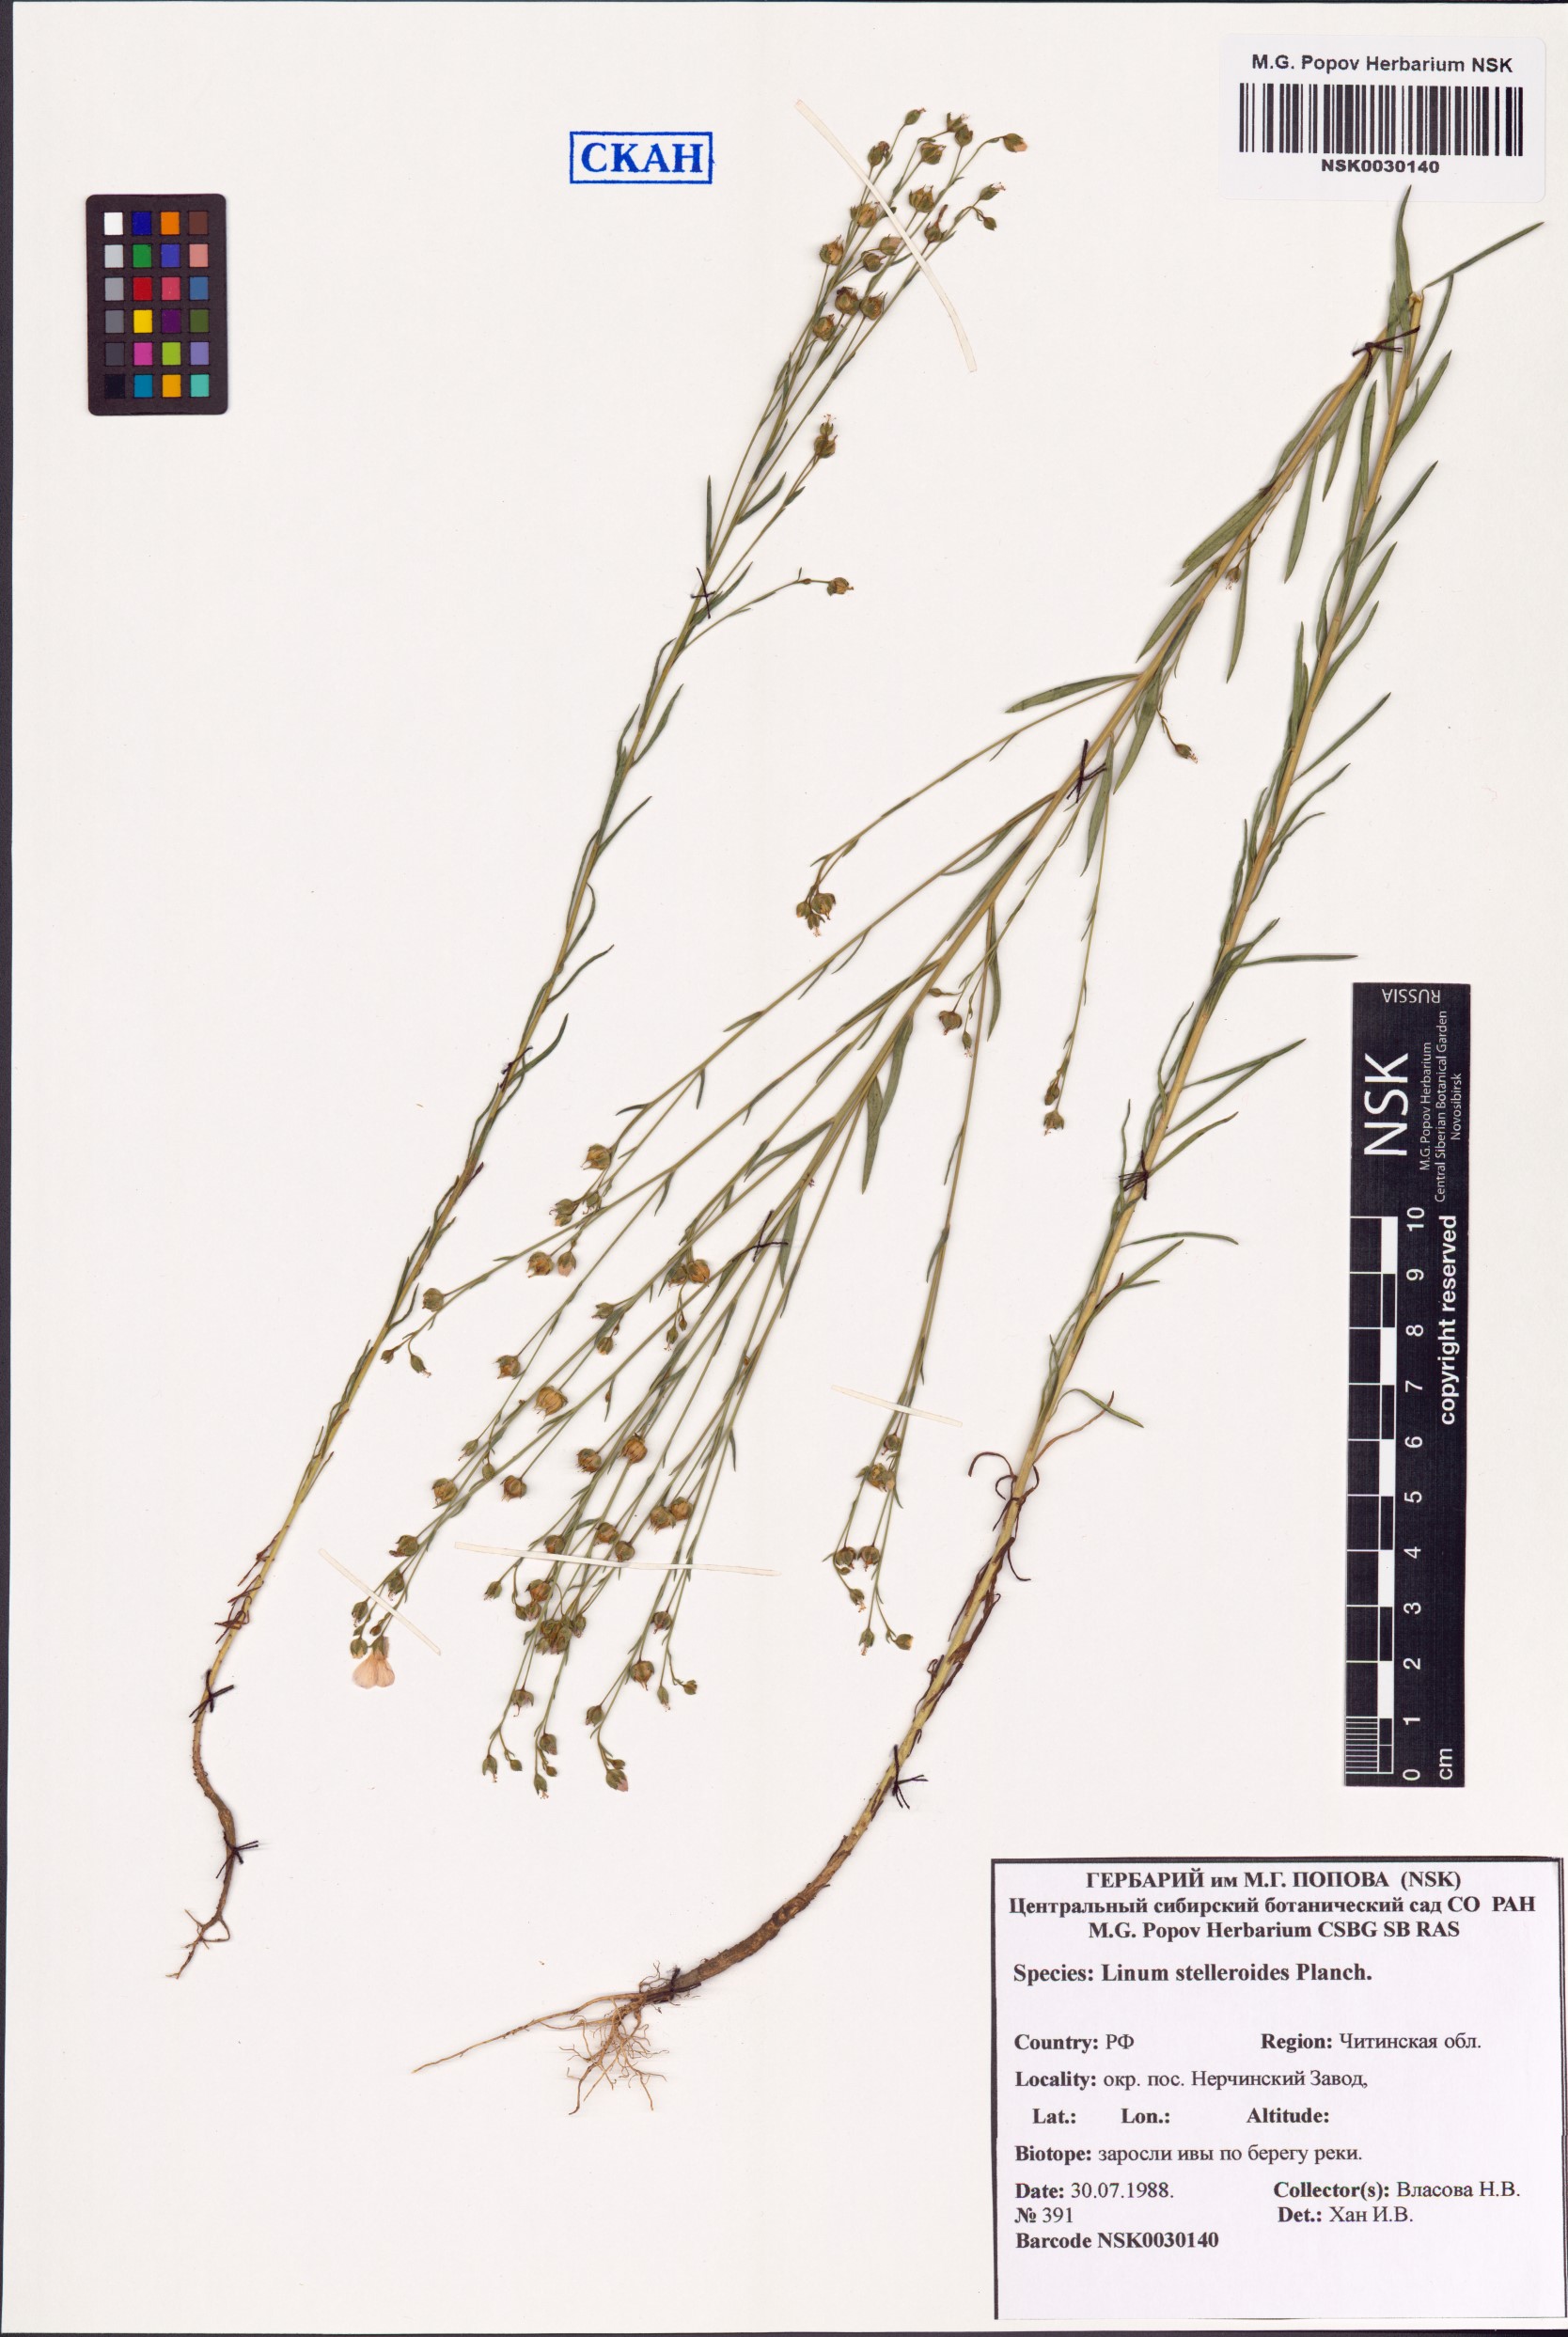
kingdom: Plantae
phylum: Tracheophyta
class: Magnoliopsida
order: Malpighiales
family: Linaceae
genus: Linum
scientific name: Linum stelleroides
